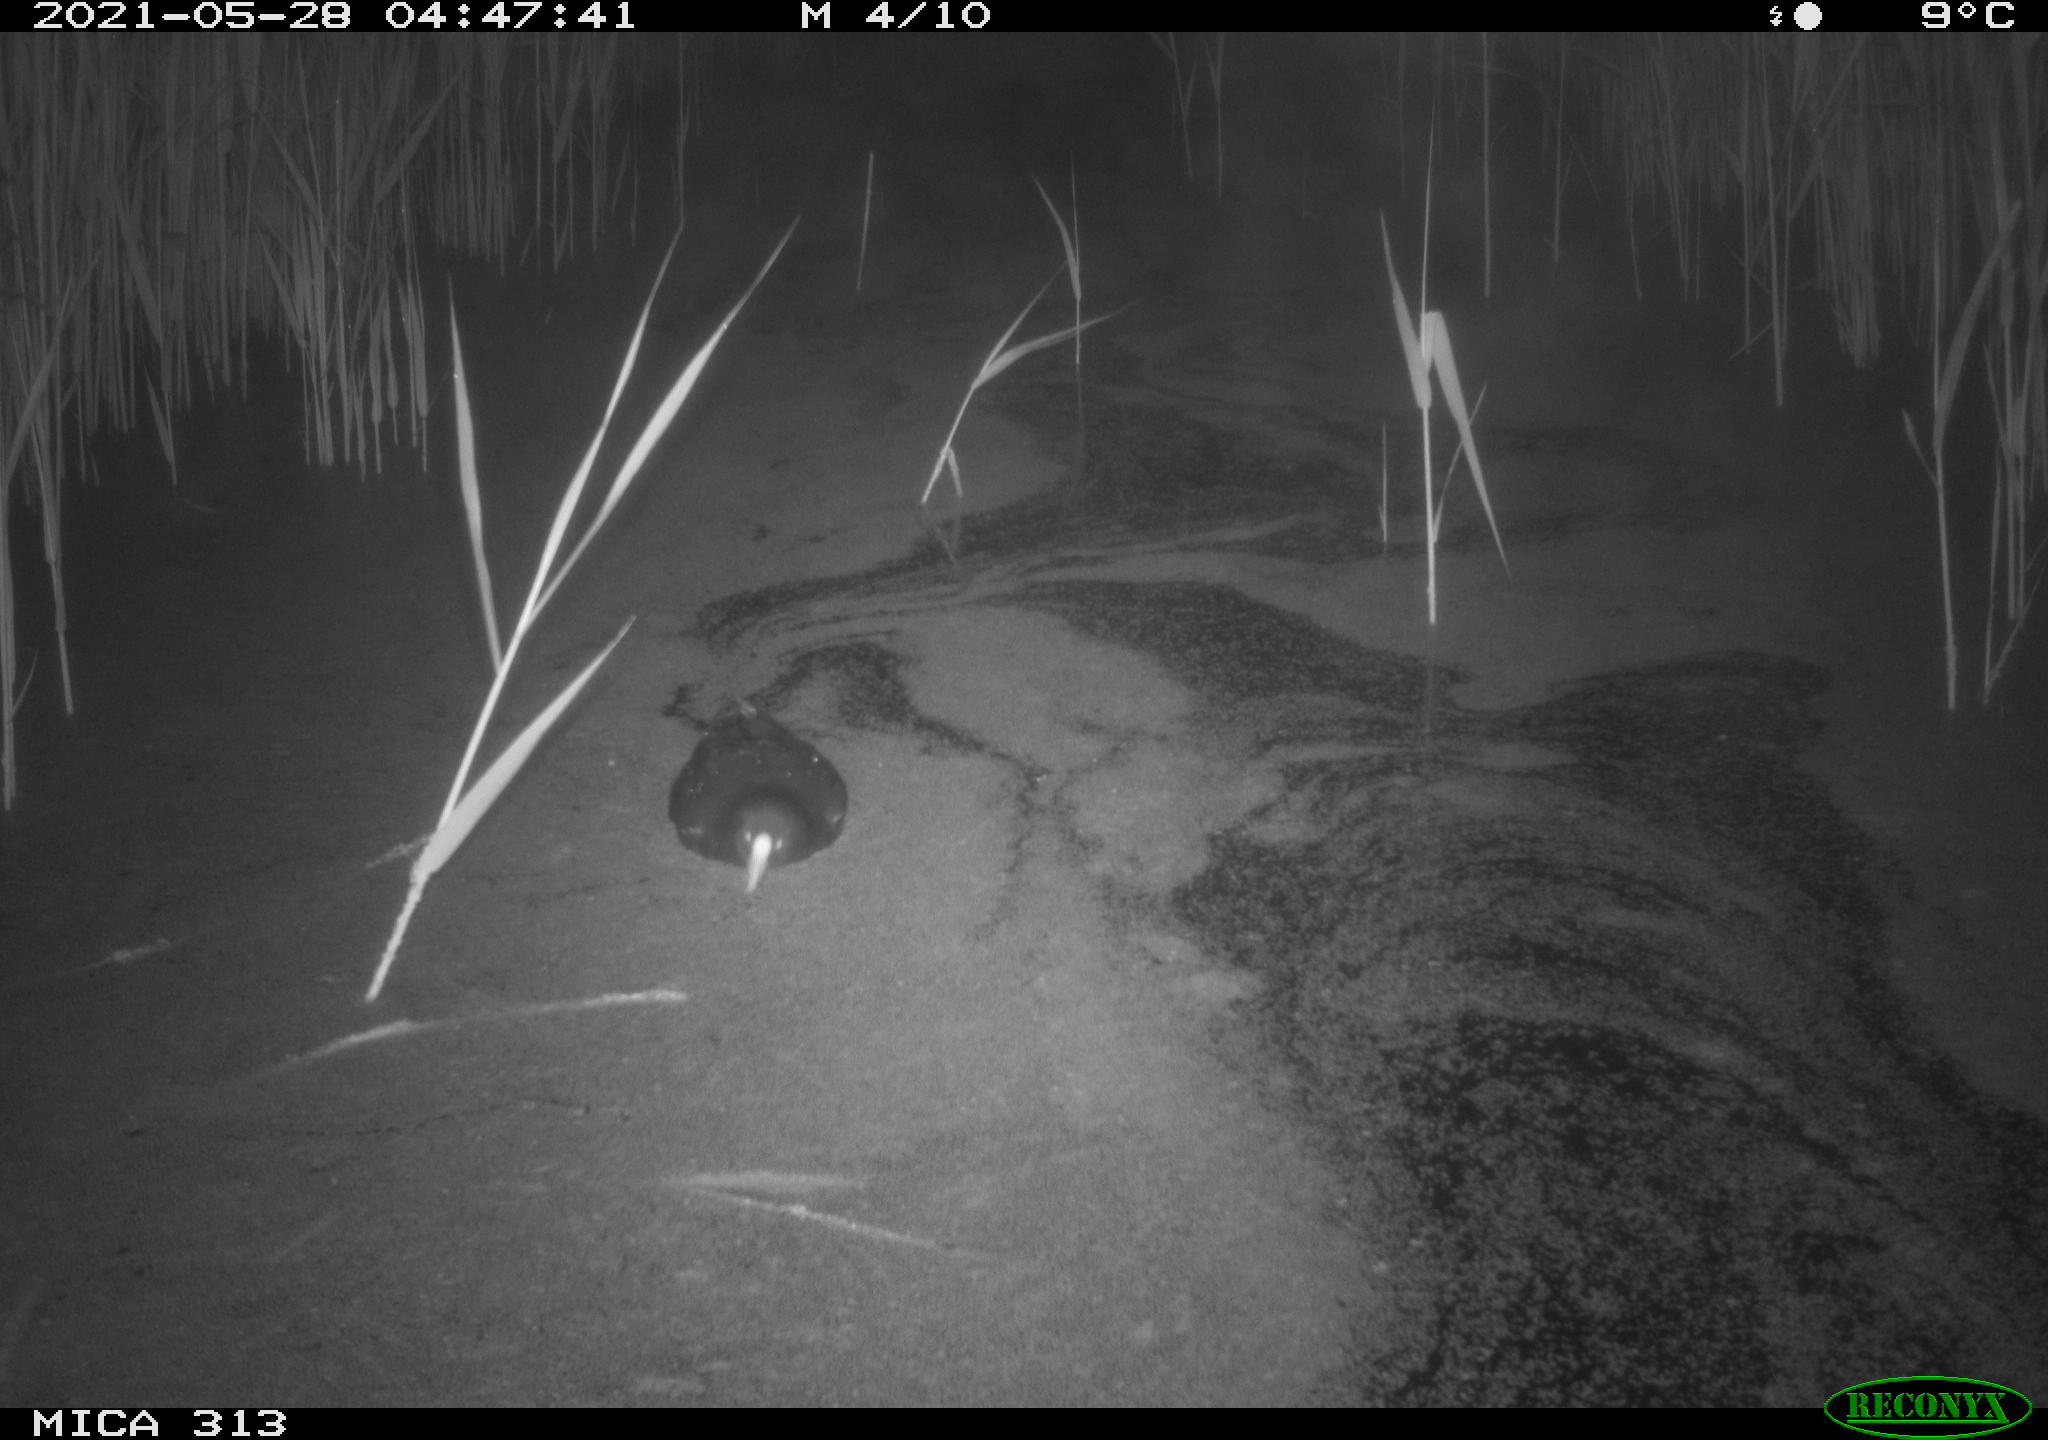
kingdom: Animalia
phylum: Chordata
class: Aves
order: Gruiformes
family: Rallidae
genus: Gallinula
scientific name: Gallinula chloropus
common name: Common moorhen
